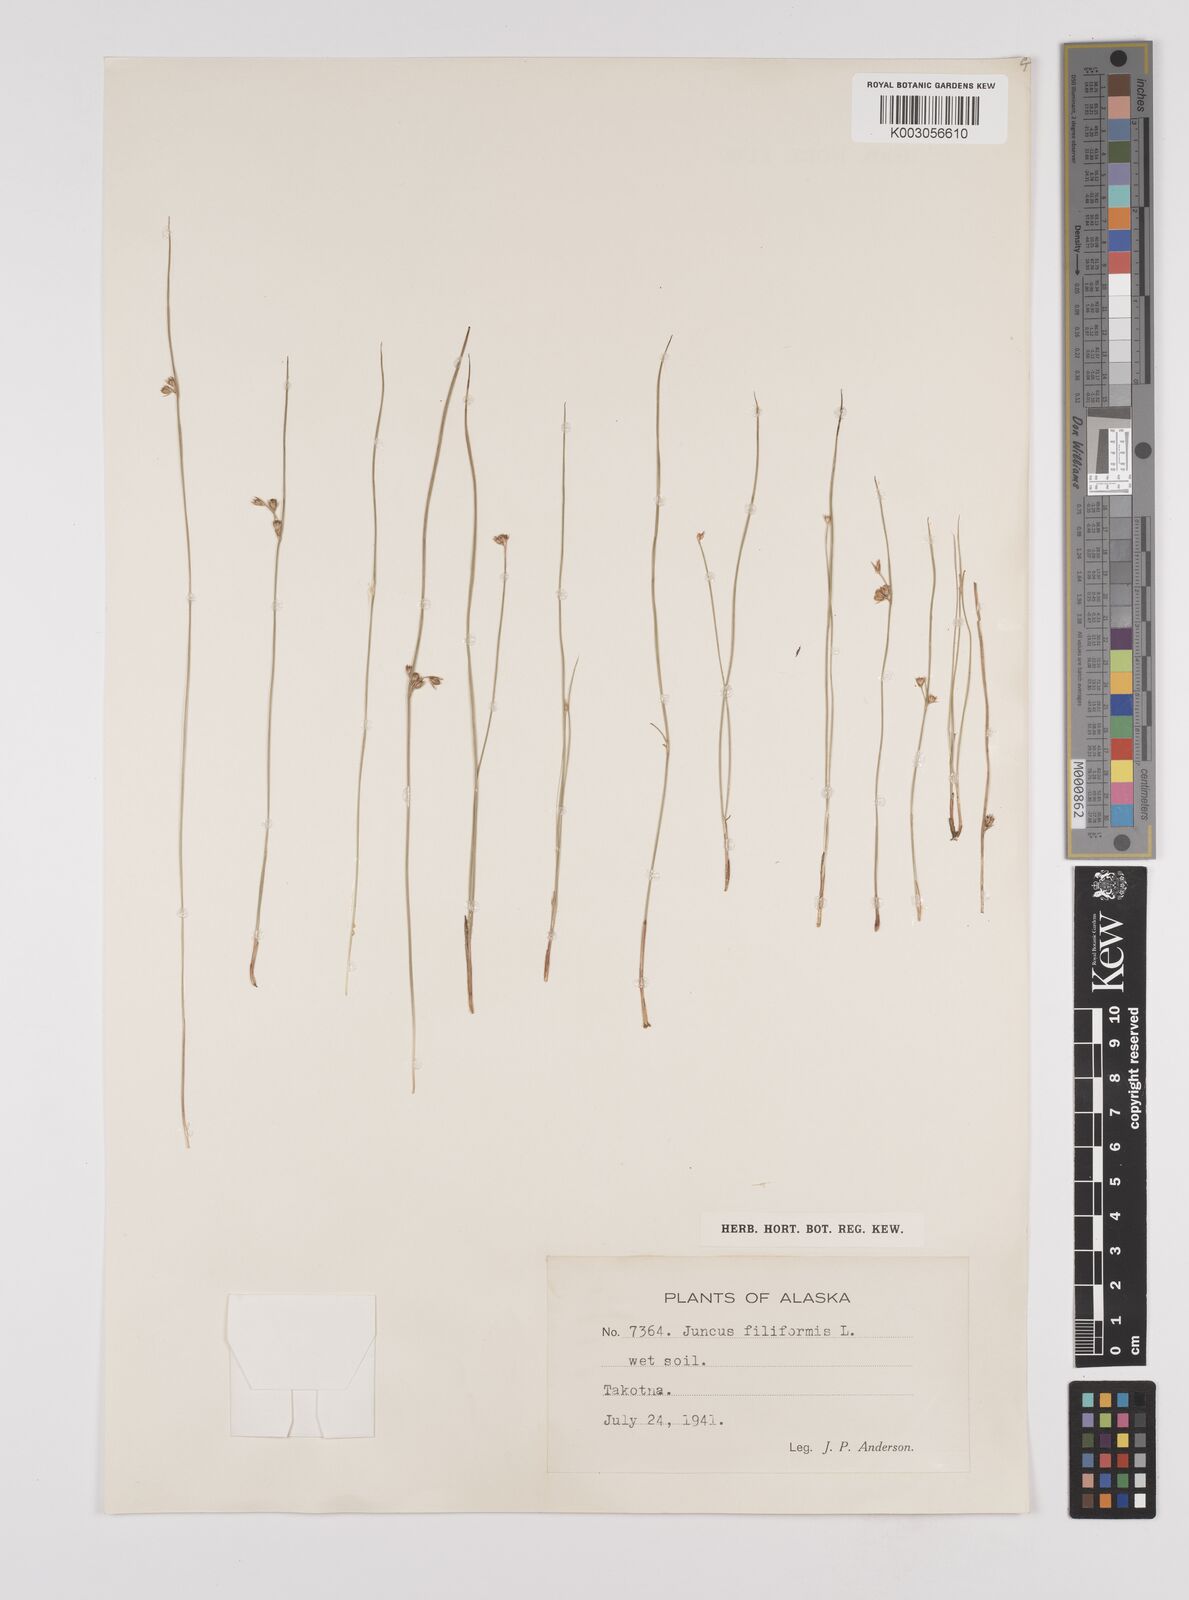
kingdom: Plantae
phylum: Tracheophyta
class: Liliopsida
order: Poales
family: Juncaceae
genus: Juncus
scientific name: Juncus filiformis
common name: Thread rush
